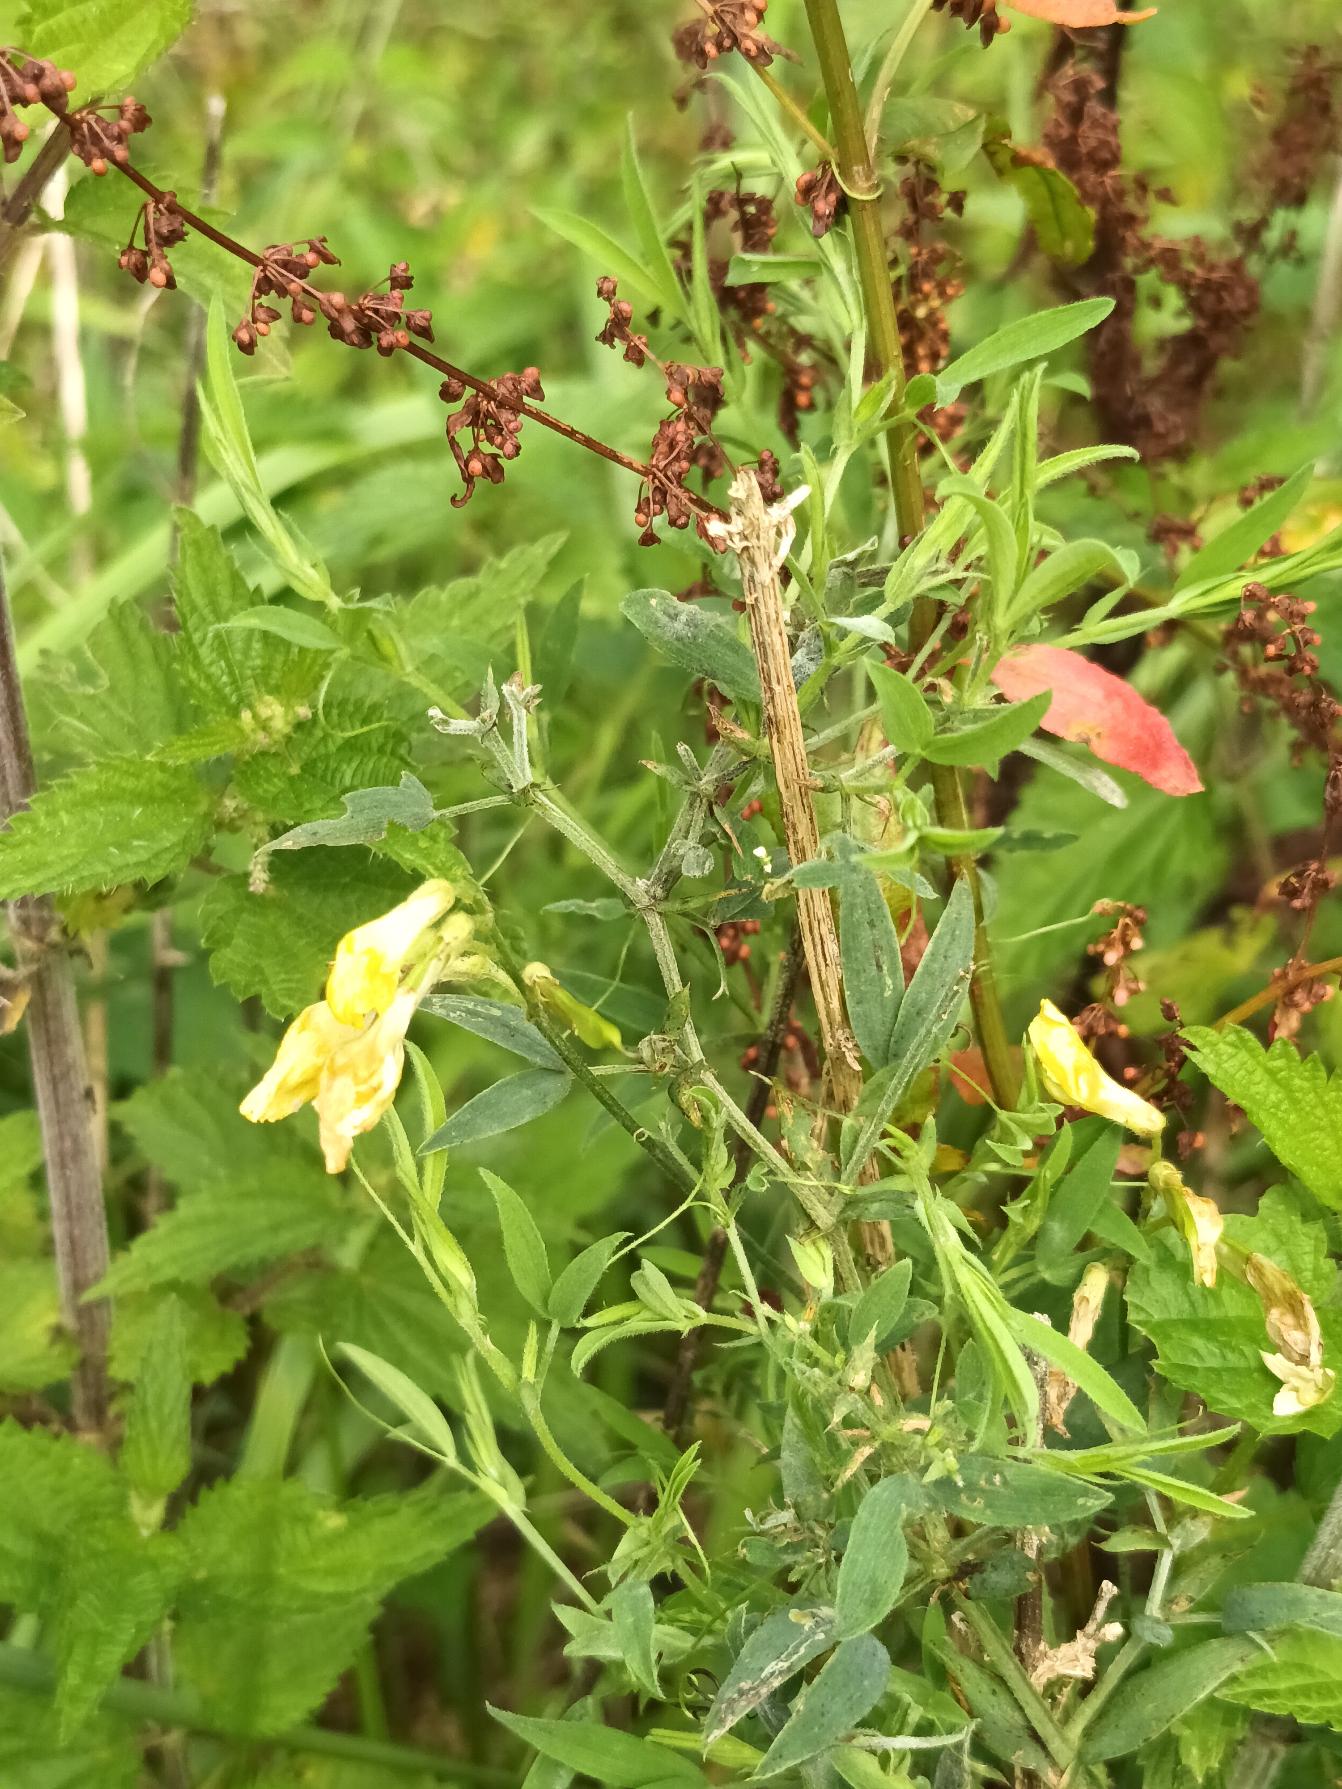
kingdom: Plantae
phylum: Tracheophyta
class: Magnoliopsida
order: Fabales
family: Fabaceae
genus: Lathyrus
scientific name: Lathyrus pratensis
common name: Gul fladbælg
